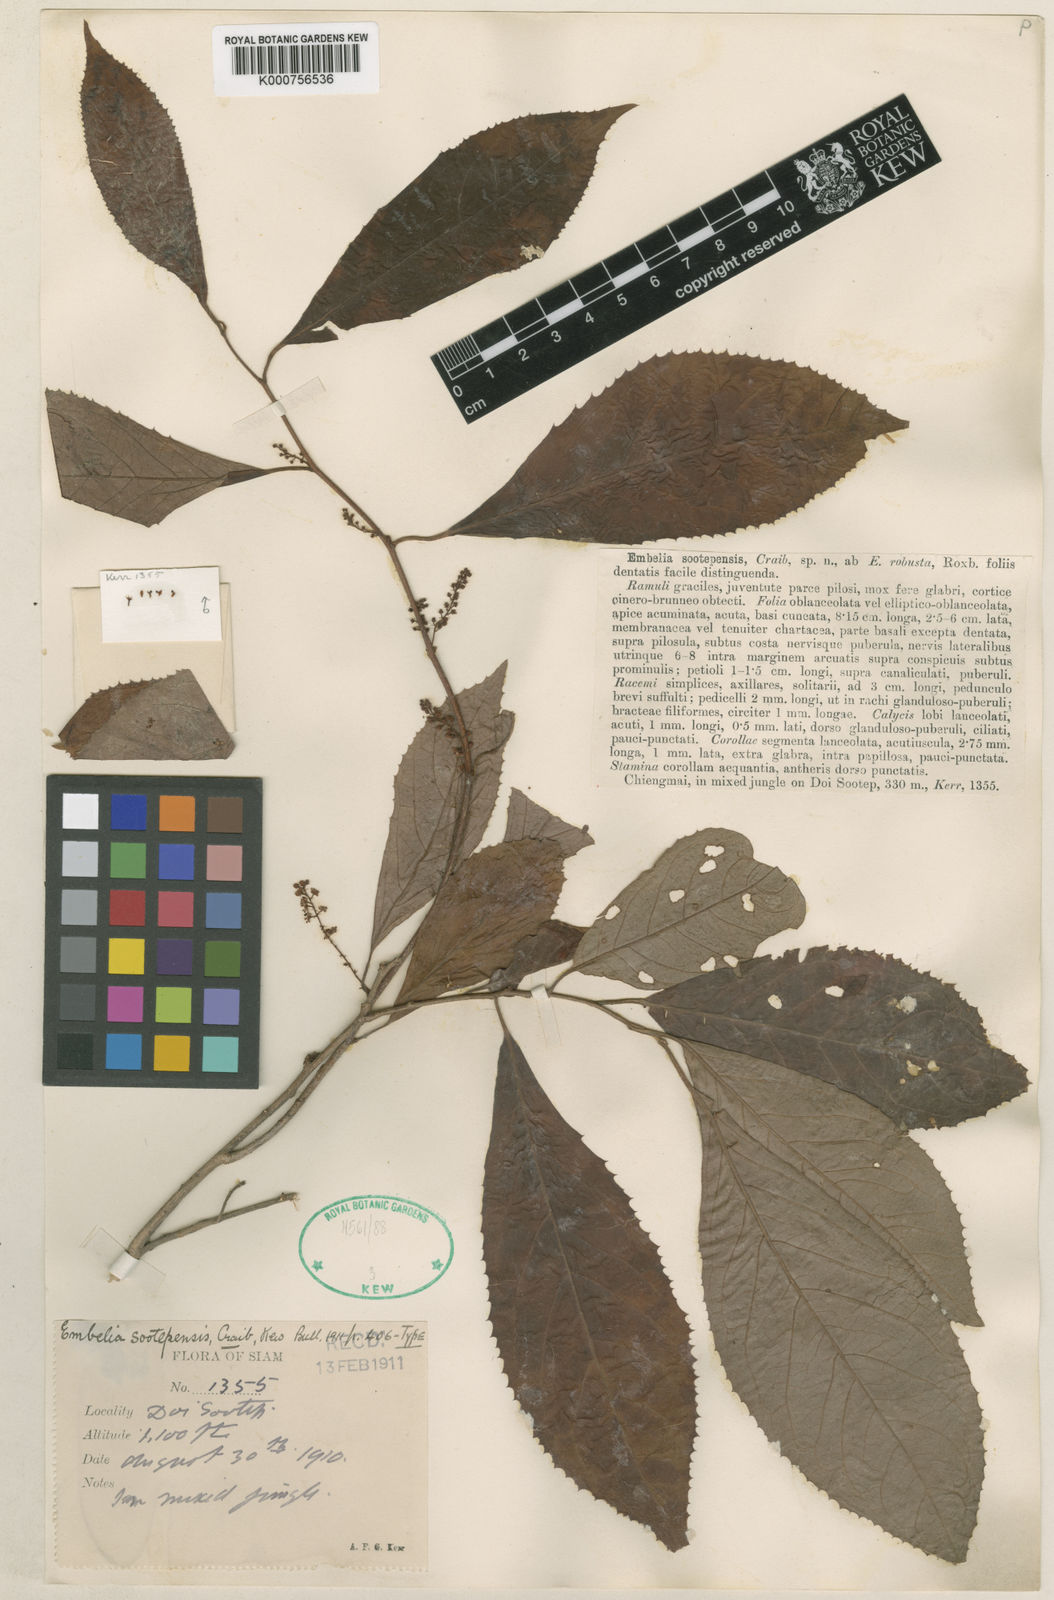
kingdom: Plantae
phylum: Tracheophyta
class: Magnoliopsida
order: Ericales
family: Primulaceae
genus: Embelia
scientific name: Embelia sootepensis
